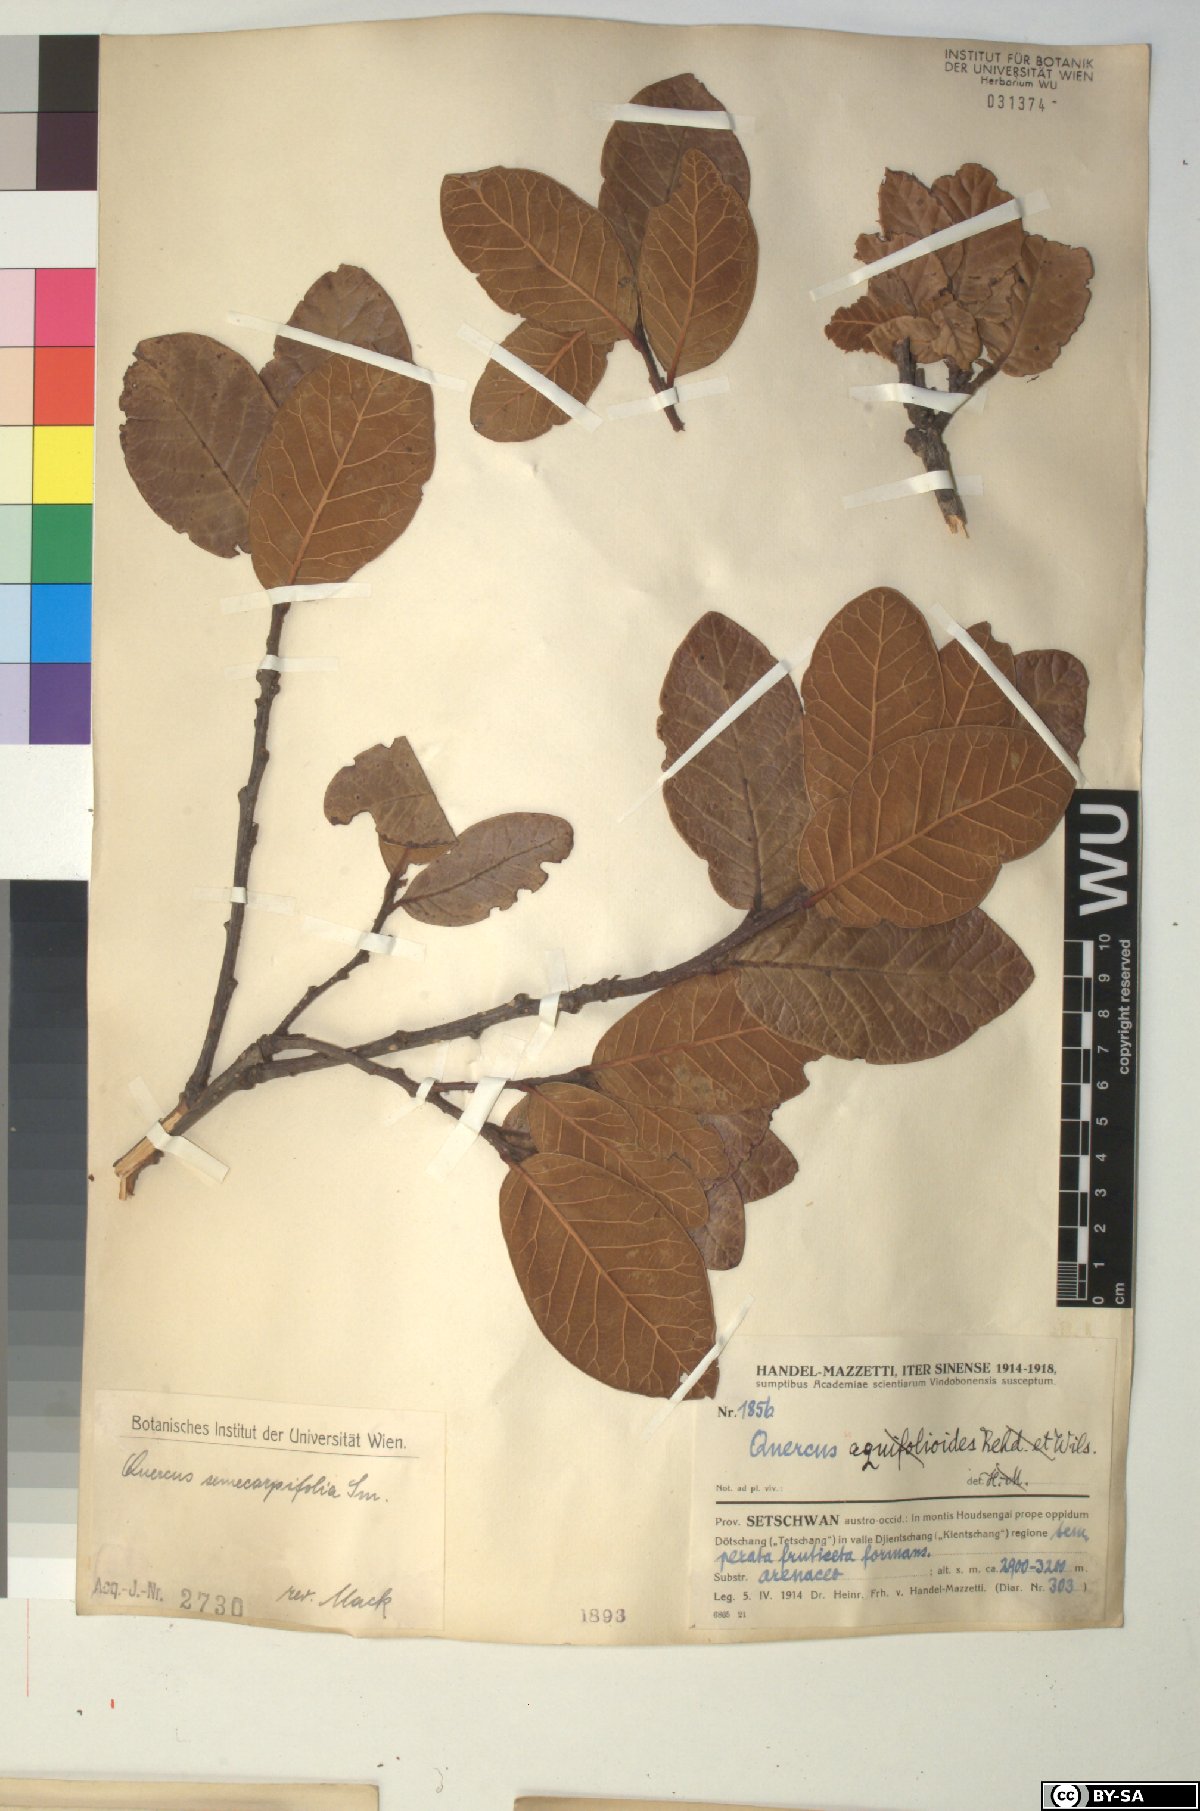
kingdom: Plantae
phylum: Tracheophyta
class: Magnoliopsida
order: Fagales
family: Fagaceae
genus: Quercus
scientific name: Quercus semecarpifolia
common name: Brown oak
